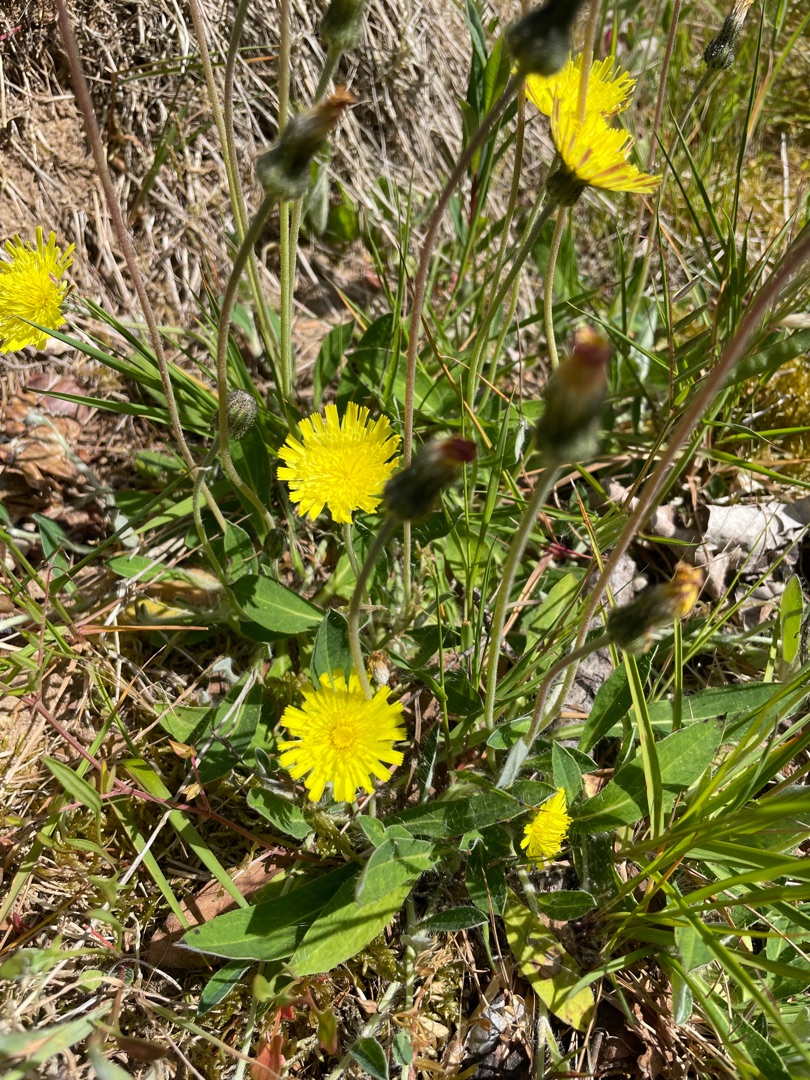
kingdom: Plantae
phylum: Tracheophyta
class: Magnoliopsida
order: Asterales
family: Asteraceae
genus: Pilosella
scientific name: Pilosella officinarum
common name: Håret høgeurt
